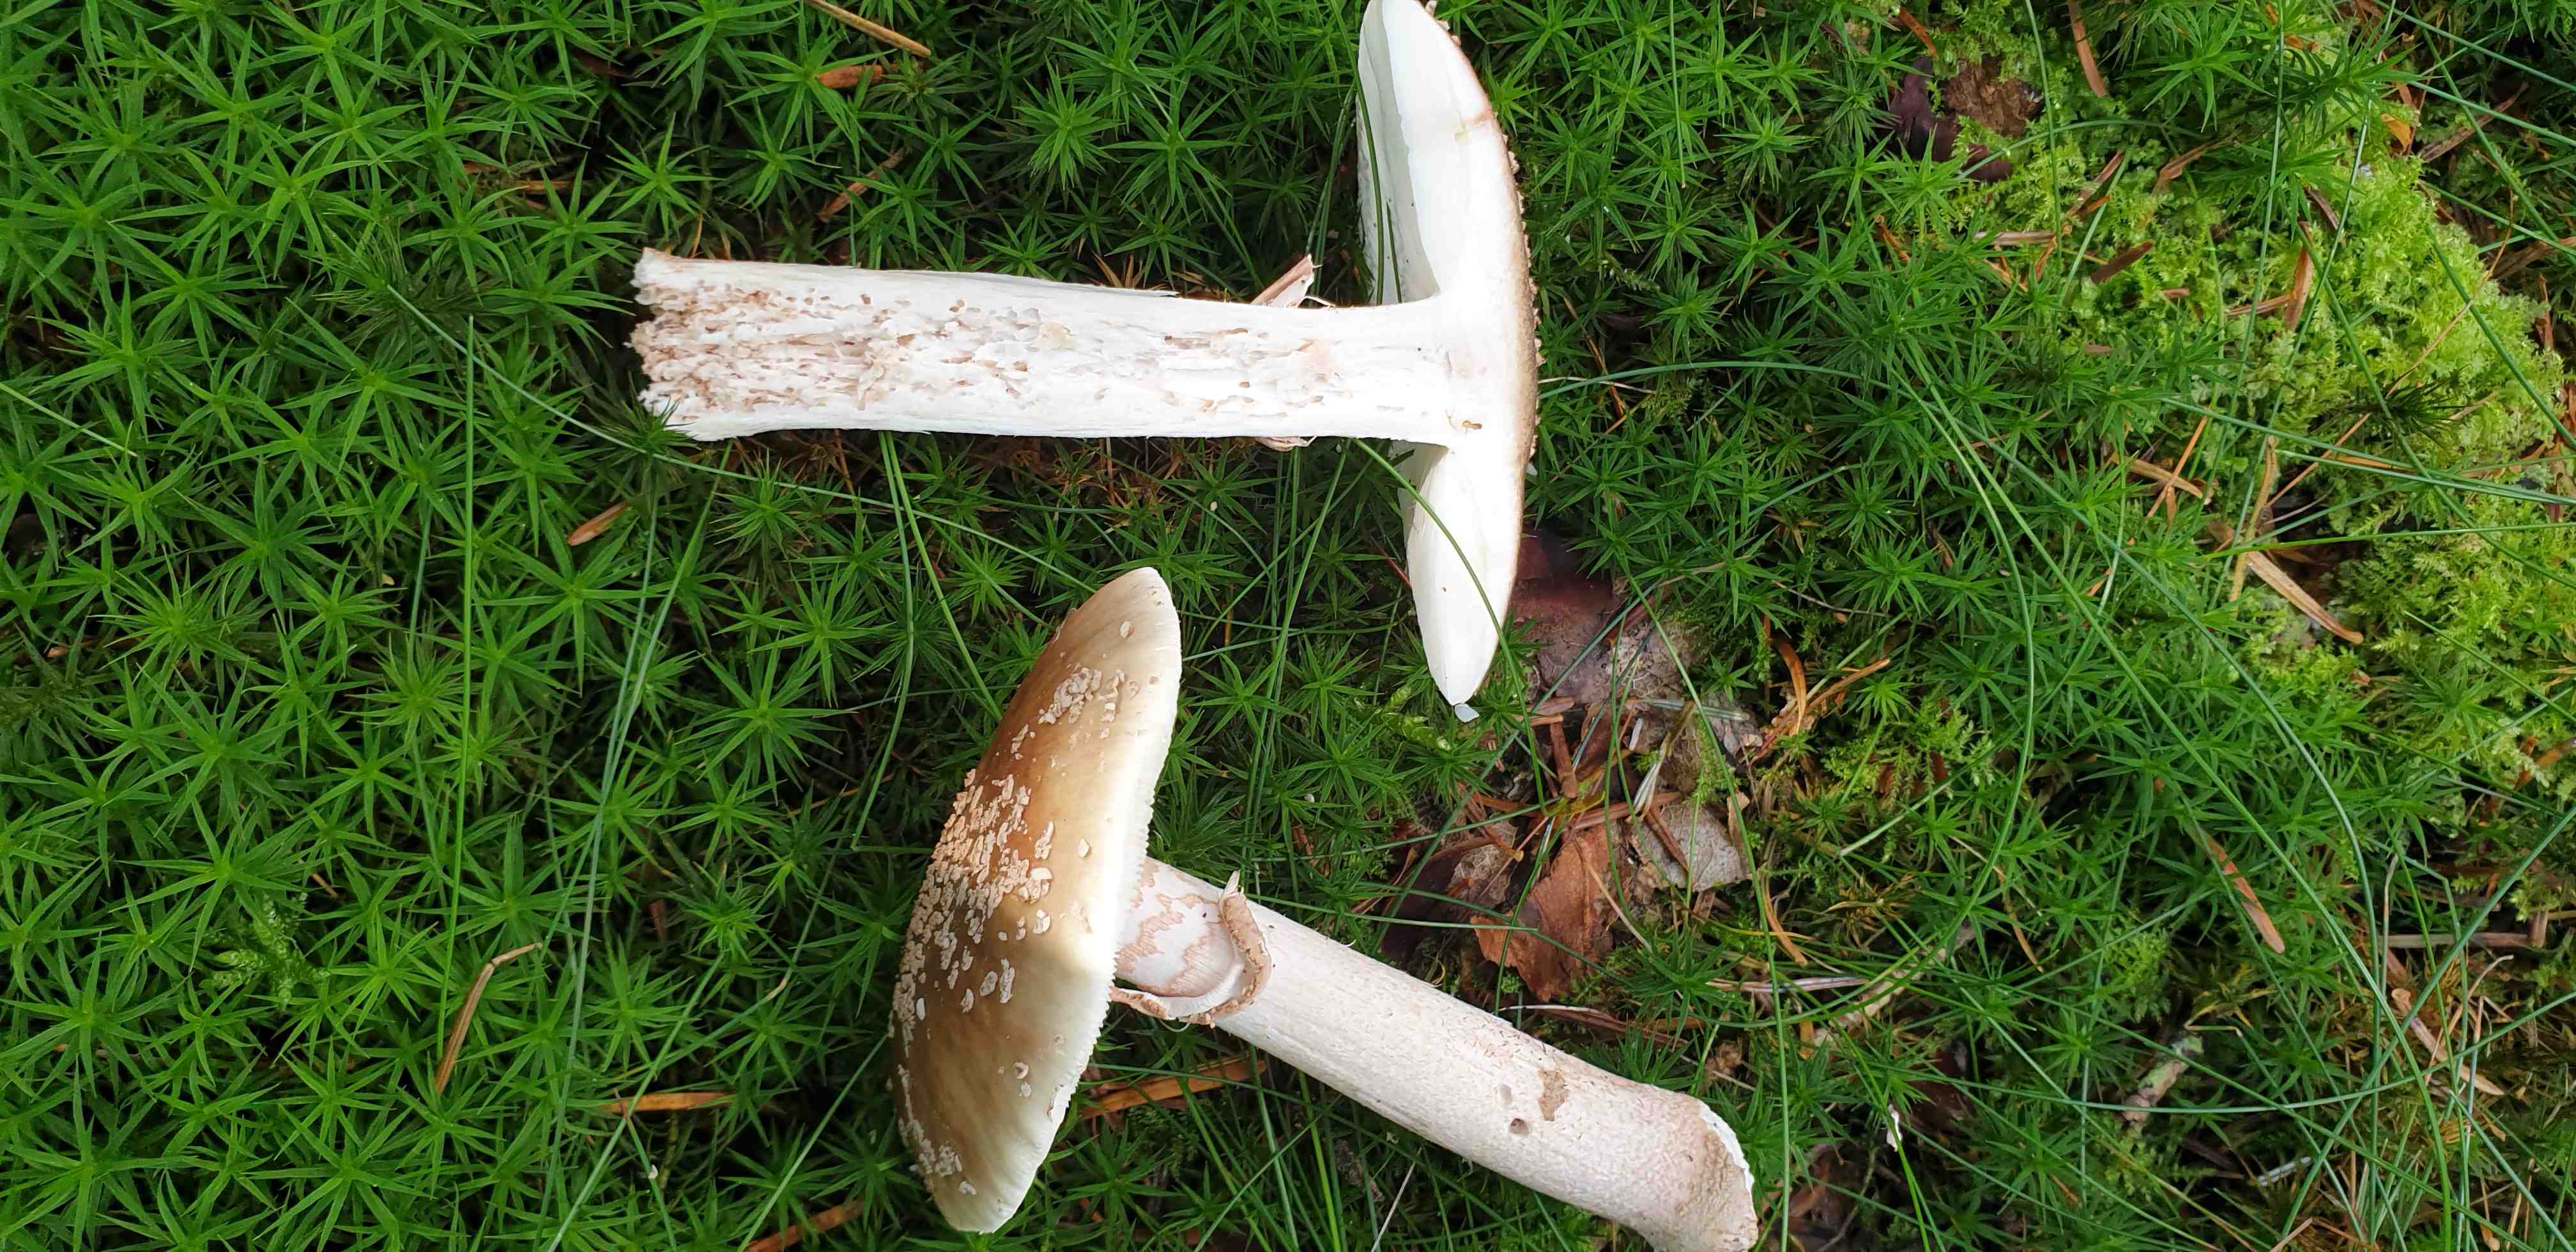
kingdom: Fungi
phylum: Basidiomycota
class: Agaricomycetes
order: Agaricales
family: Amanitaceae
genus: Amanita
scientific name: Amanita rubescens
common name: rødmende fluesvamp
